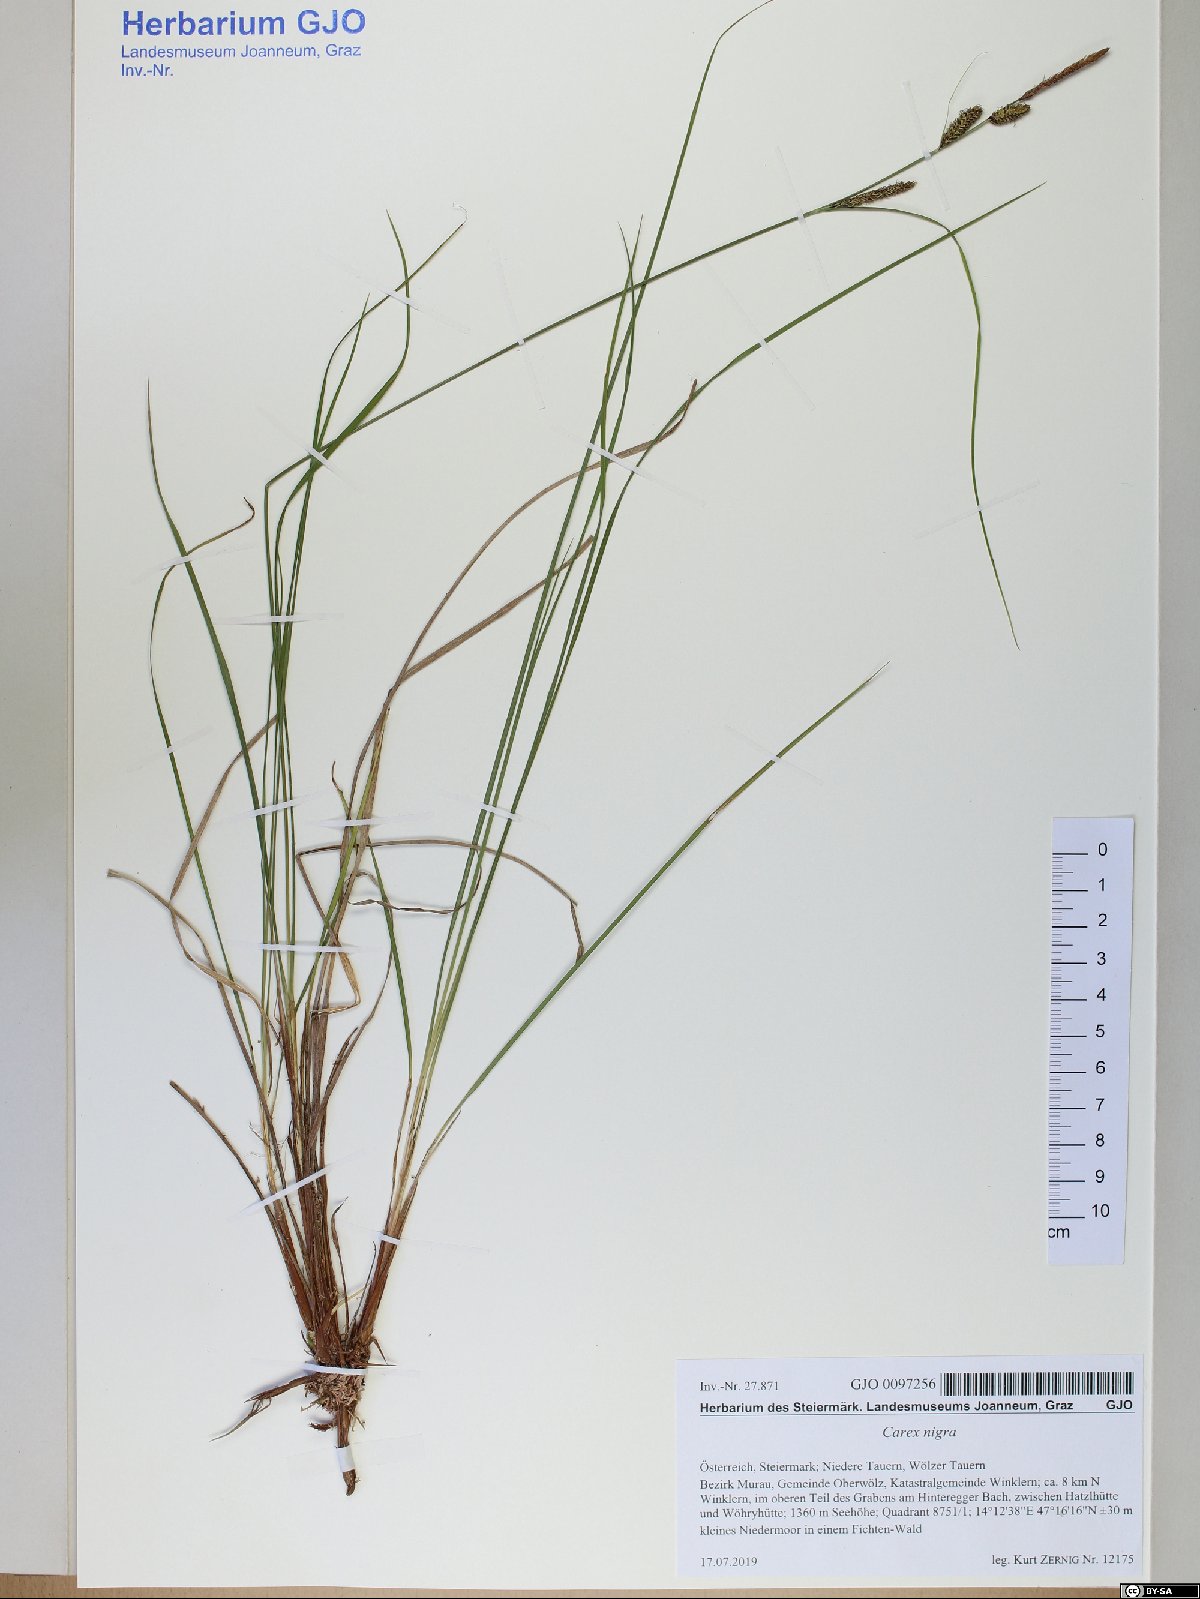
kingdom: Plantae
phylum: Tracheophyta
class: Liliopsida
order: Poales
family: Cyperaceae
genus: Carex
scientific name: Carex nigra
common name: Common sedge
